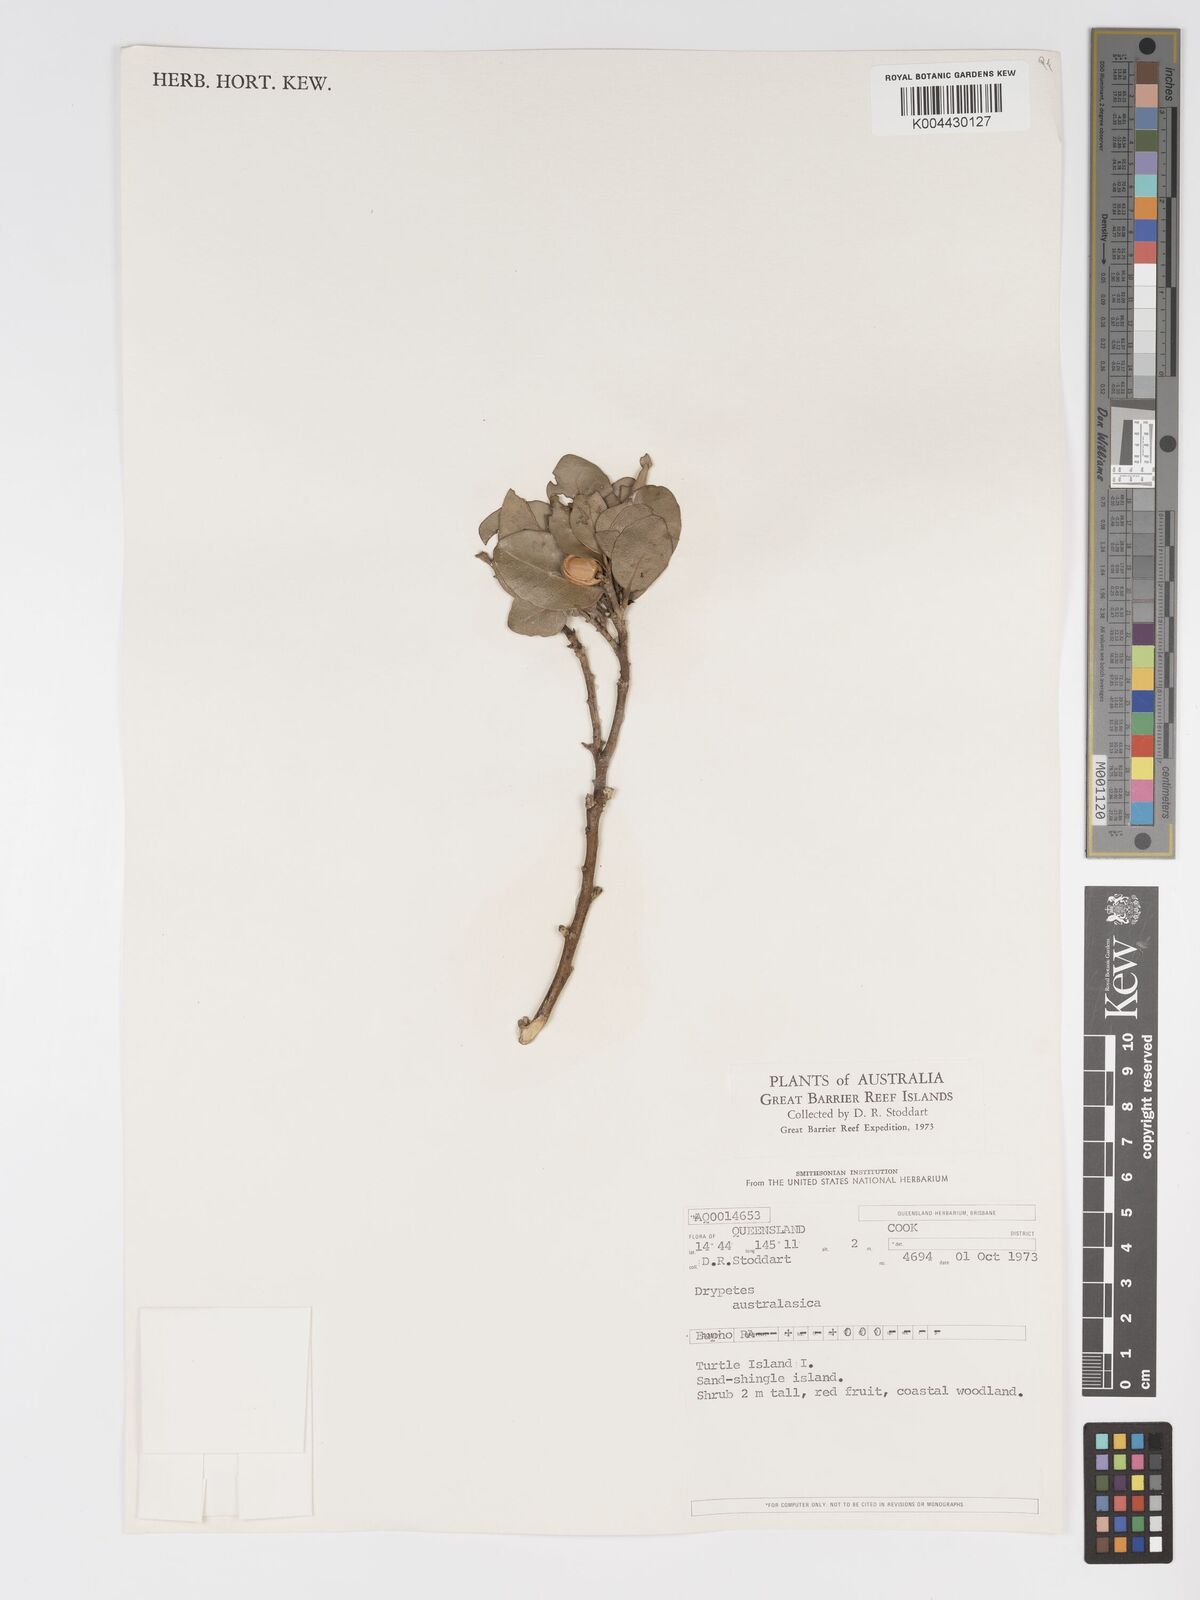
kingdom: Plantae
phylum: Tracheophyta
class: Magnoliopsida
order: Malpighiales
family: Putranjivaceae
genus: Drypetes
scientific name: Drypetes deplanchei
